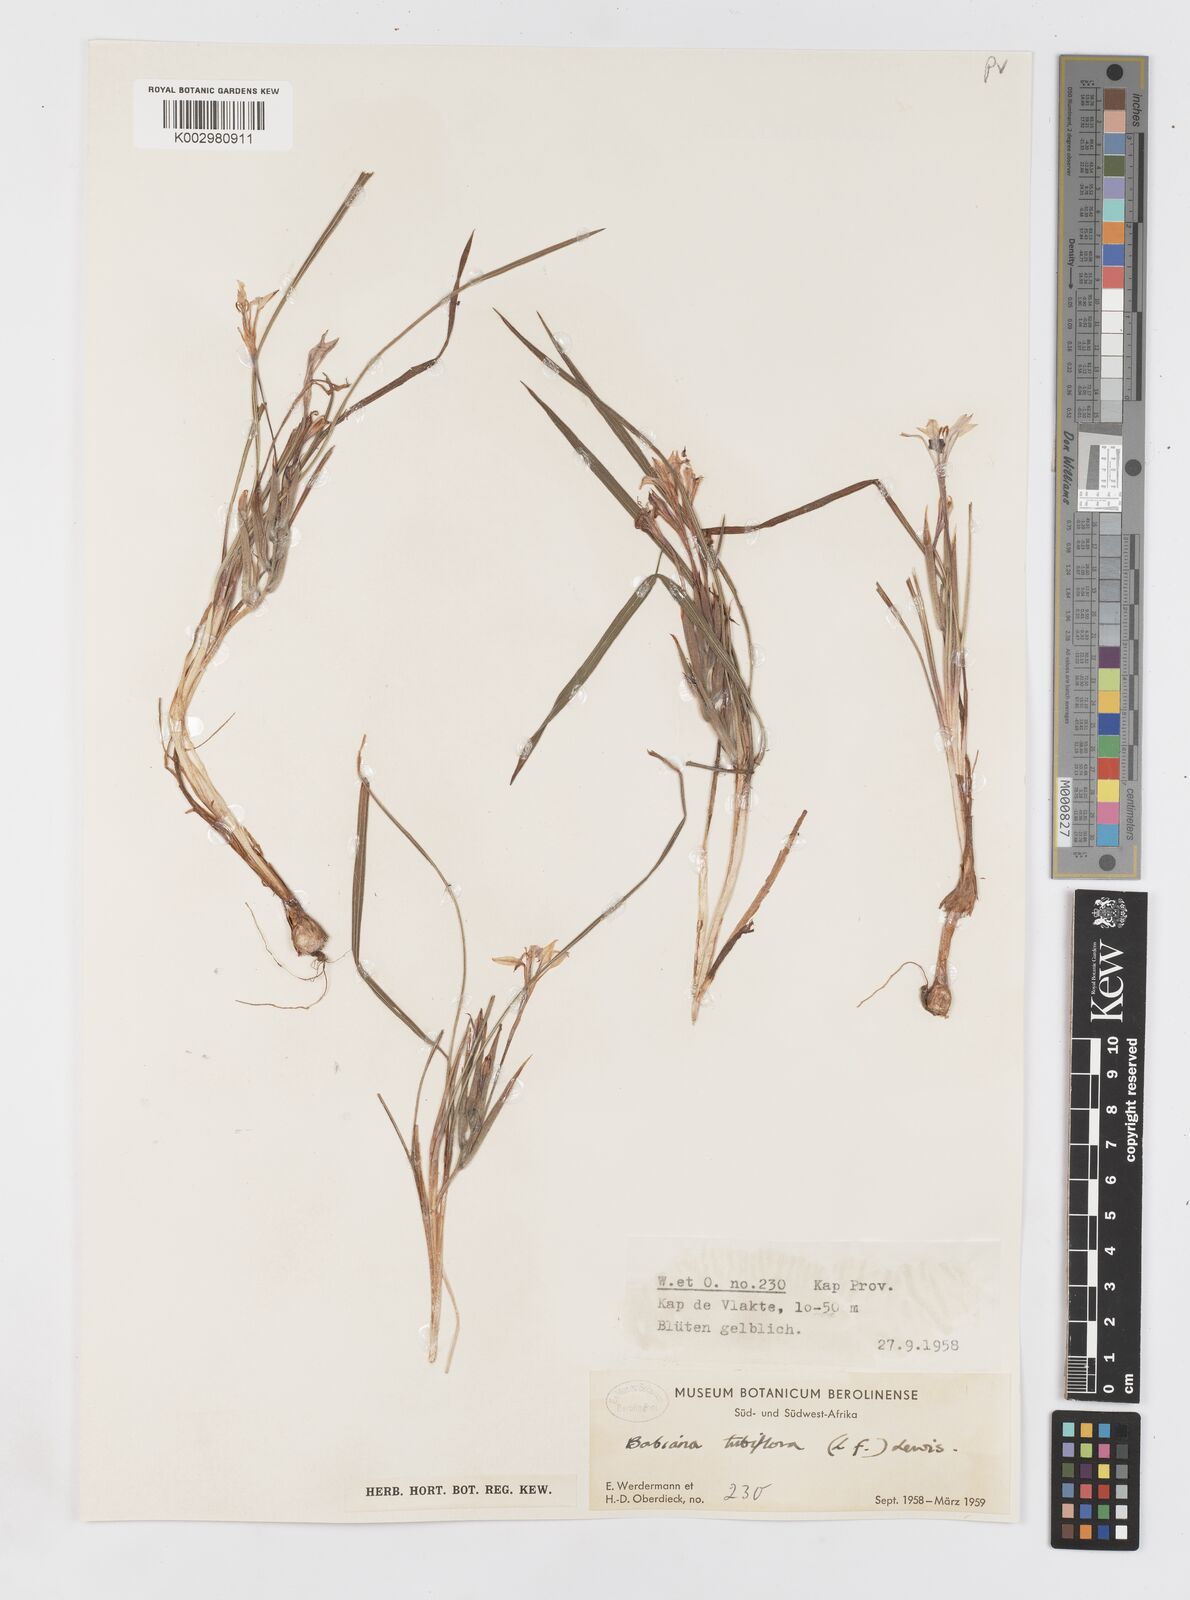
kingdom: Plantae
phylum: Tracheophyta
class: Liliopsida
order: Asparagales
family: Iridaceae
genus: Babiana
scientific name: Babiana tubiflora
